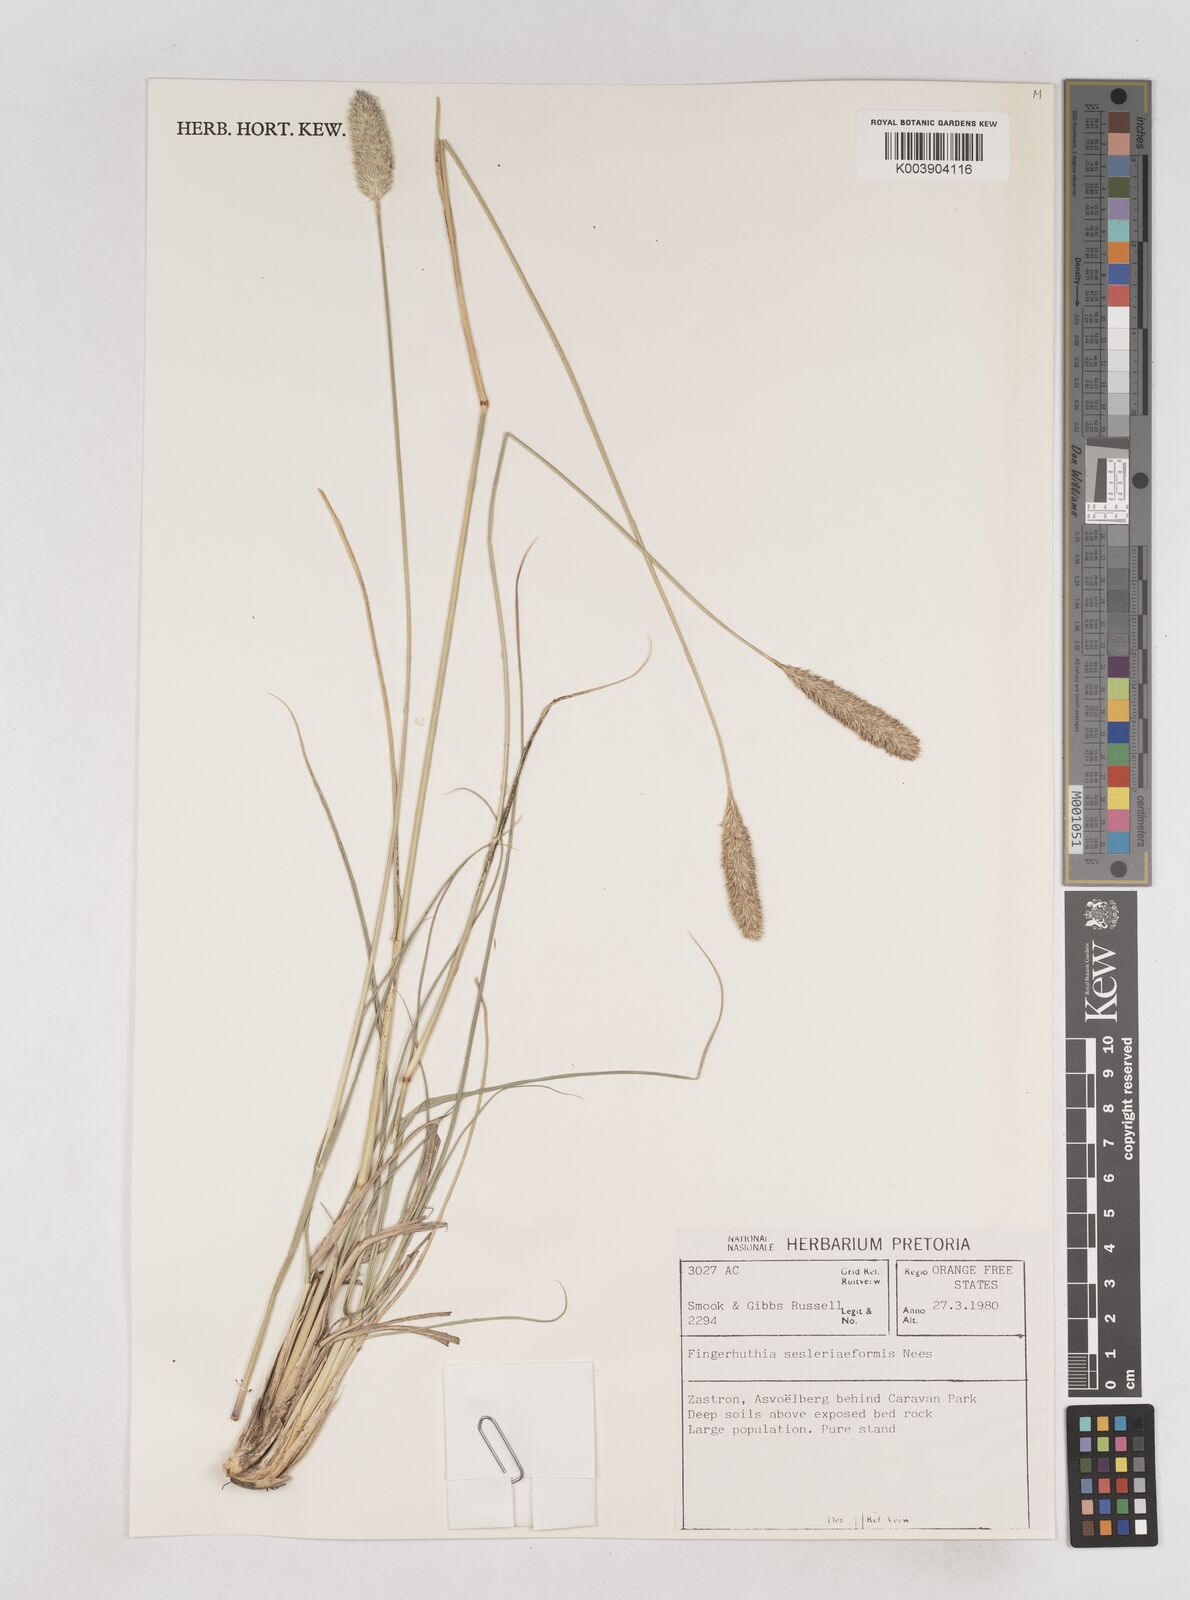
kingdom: Plantae
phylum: Tracheophyta
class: Liliopsida
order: Poales
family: Poaceae
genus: Fingerhuthia
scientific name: Fingerhuthia sesleriiformis
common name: Thimble grass
